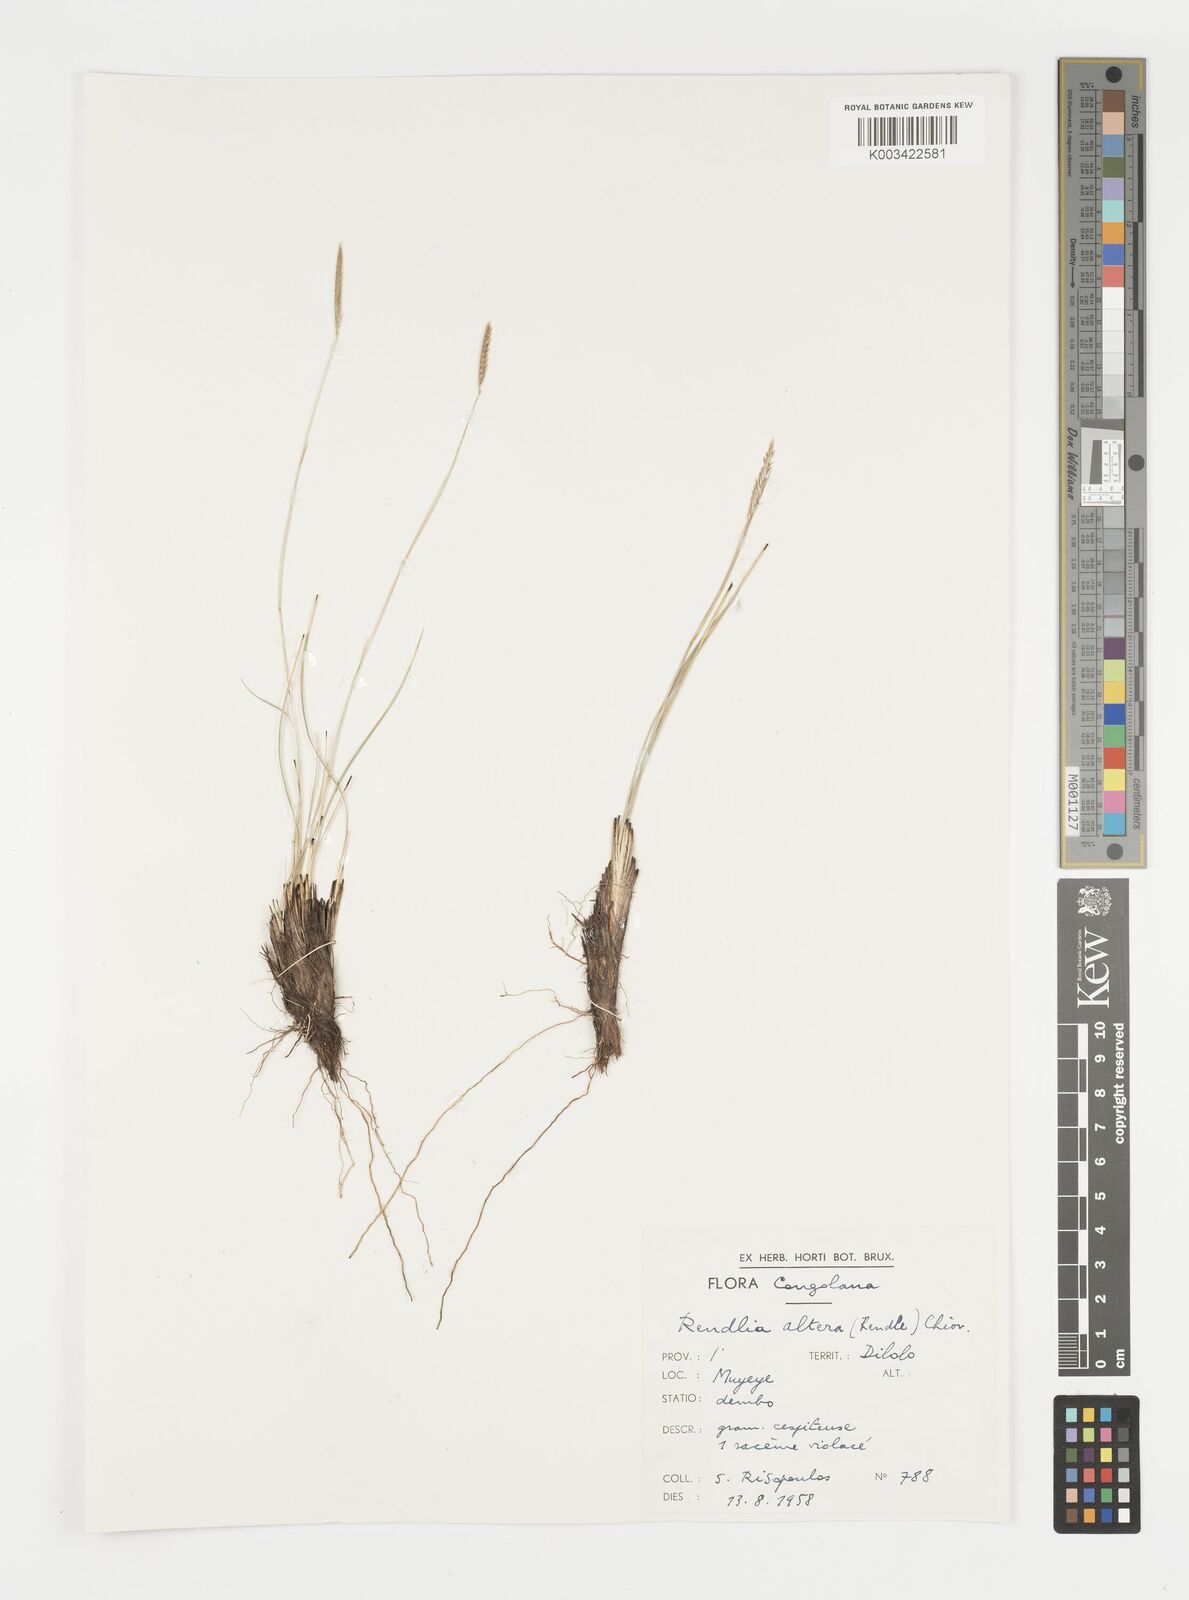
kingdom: Plantae
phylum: Tracheophyta
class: Liliopsida
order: Poales
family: Poaceae
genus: Microchloa
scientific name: Microchloa altera
